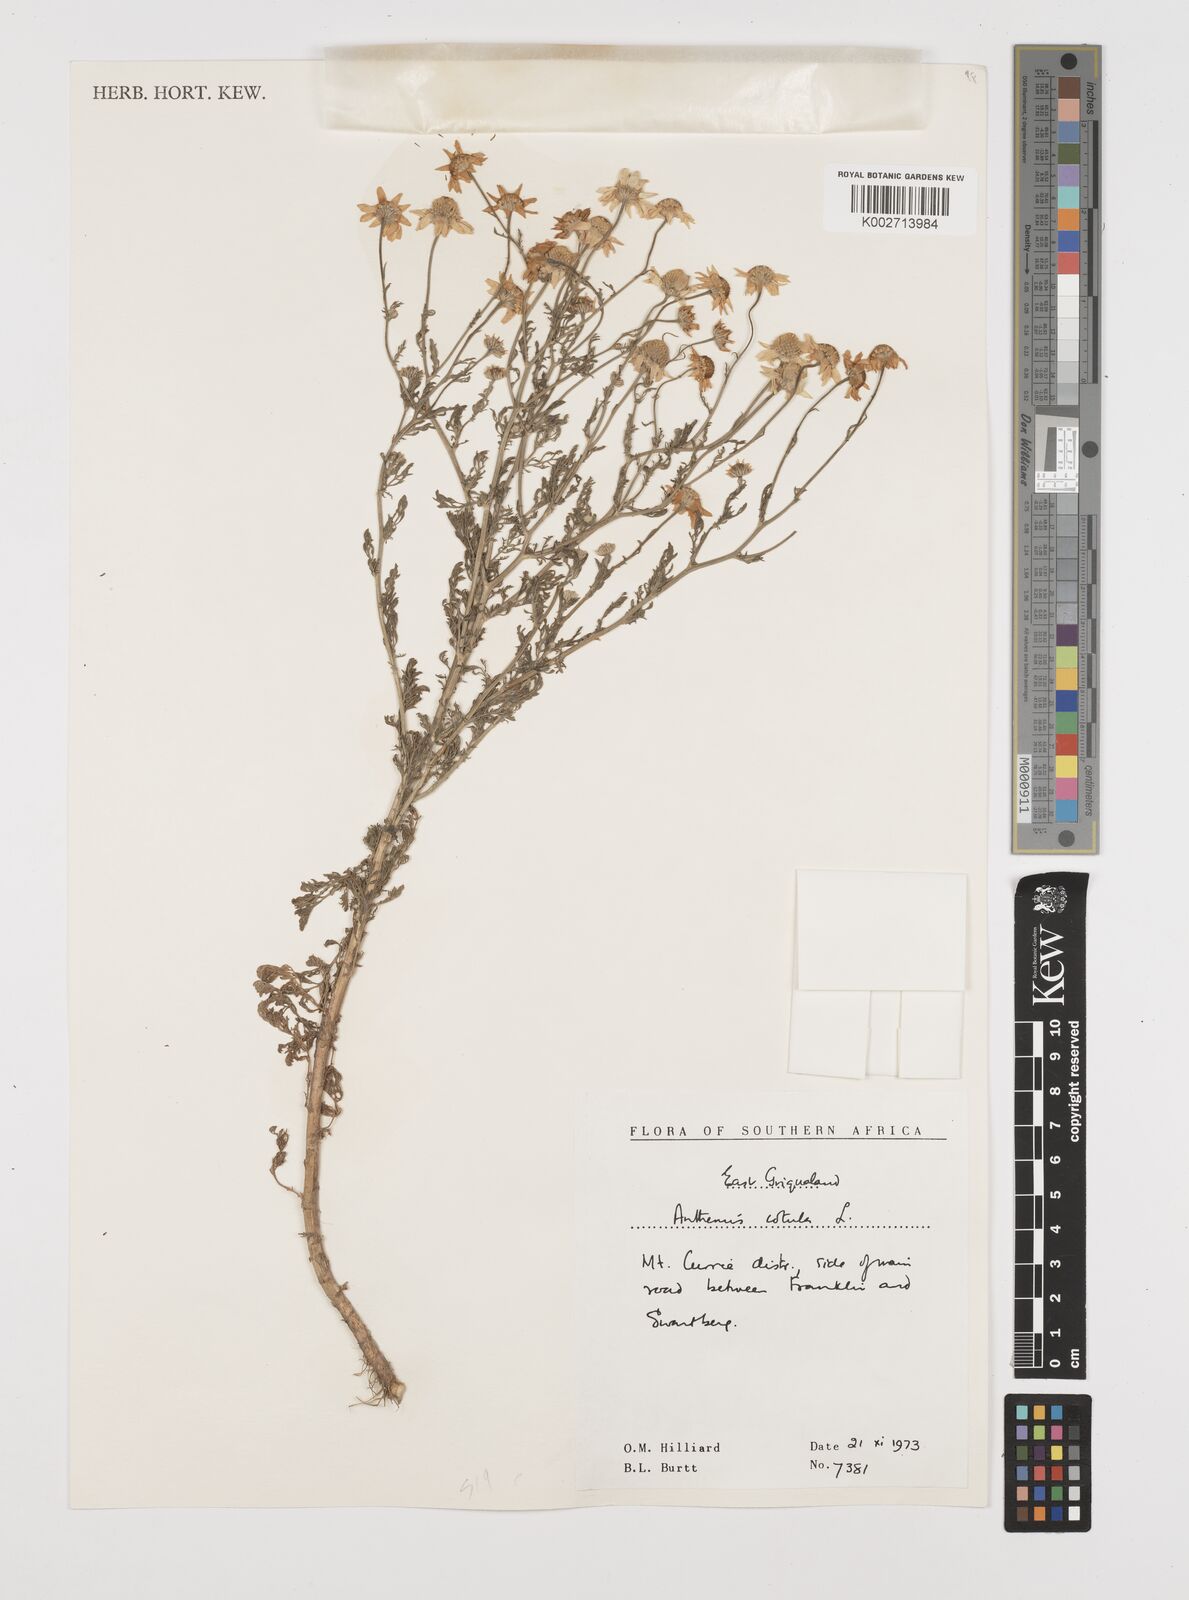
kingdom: Plantae
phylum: Tracheophyta
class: Magnoliopsida
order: Asterales
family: Asteraceae
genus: Anthemis
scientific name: Anthemis cotula
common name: Stinking chamomile
